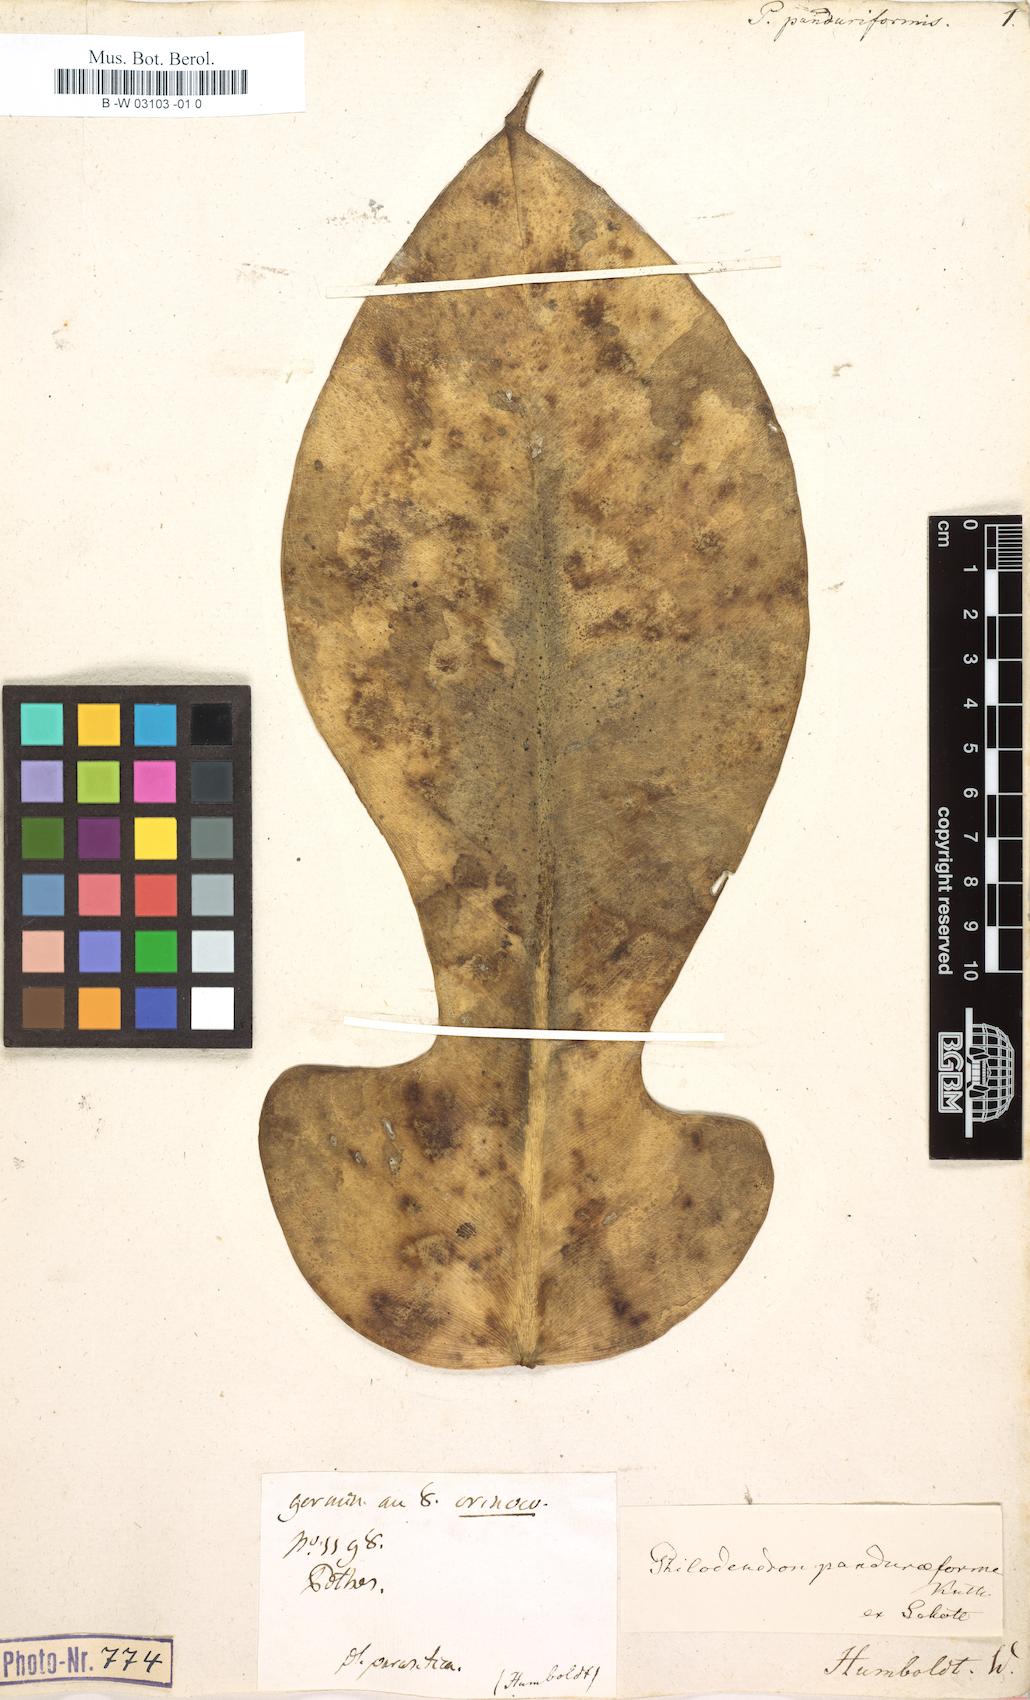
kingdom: Plantae
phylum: Tracheophyta
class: Liliopsida
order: Alismatales
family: Araceae
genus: Philodendron
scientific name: Philodendron panduriforme
